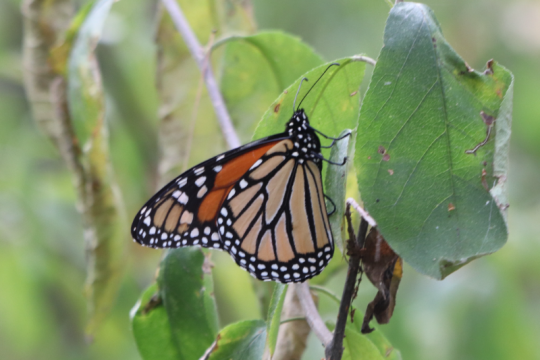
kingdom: Animalia
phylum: Arthropoda
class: Insecta
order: Lepidoptera
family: Nymphalidae
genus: Danaus
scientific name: Danaus plexippus
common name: Monarch
